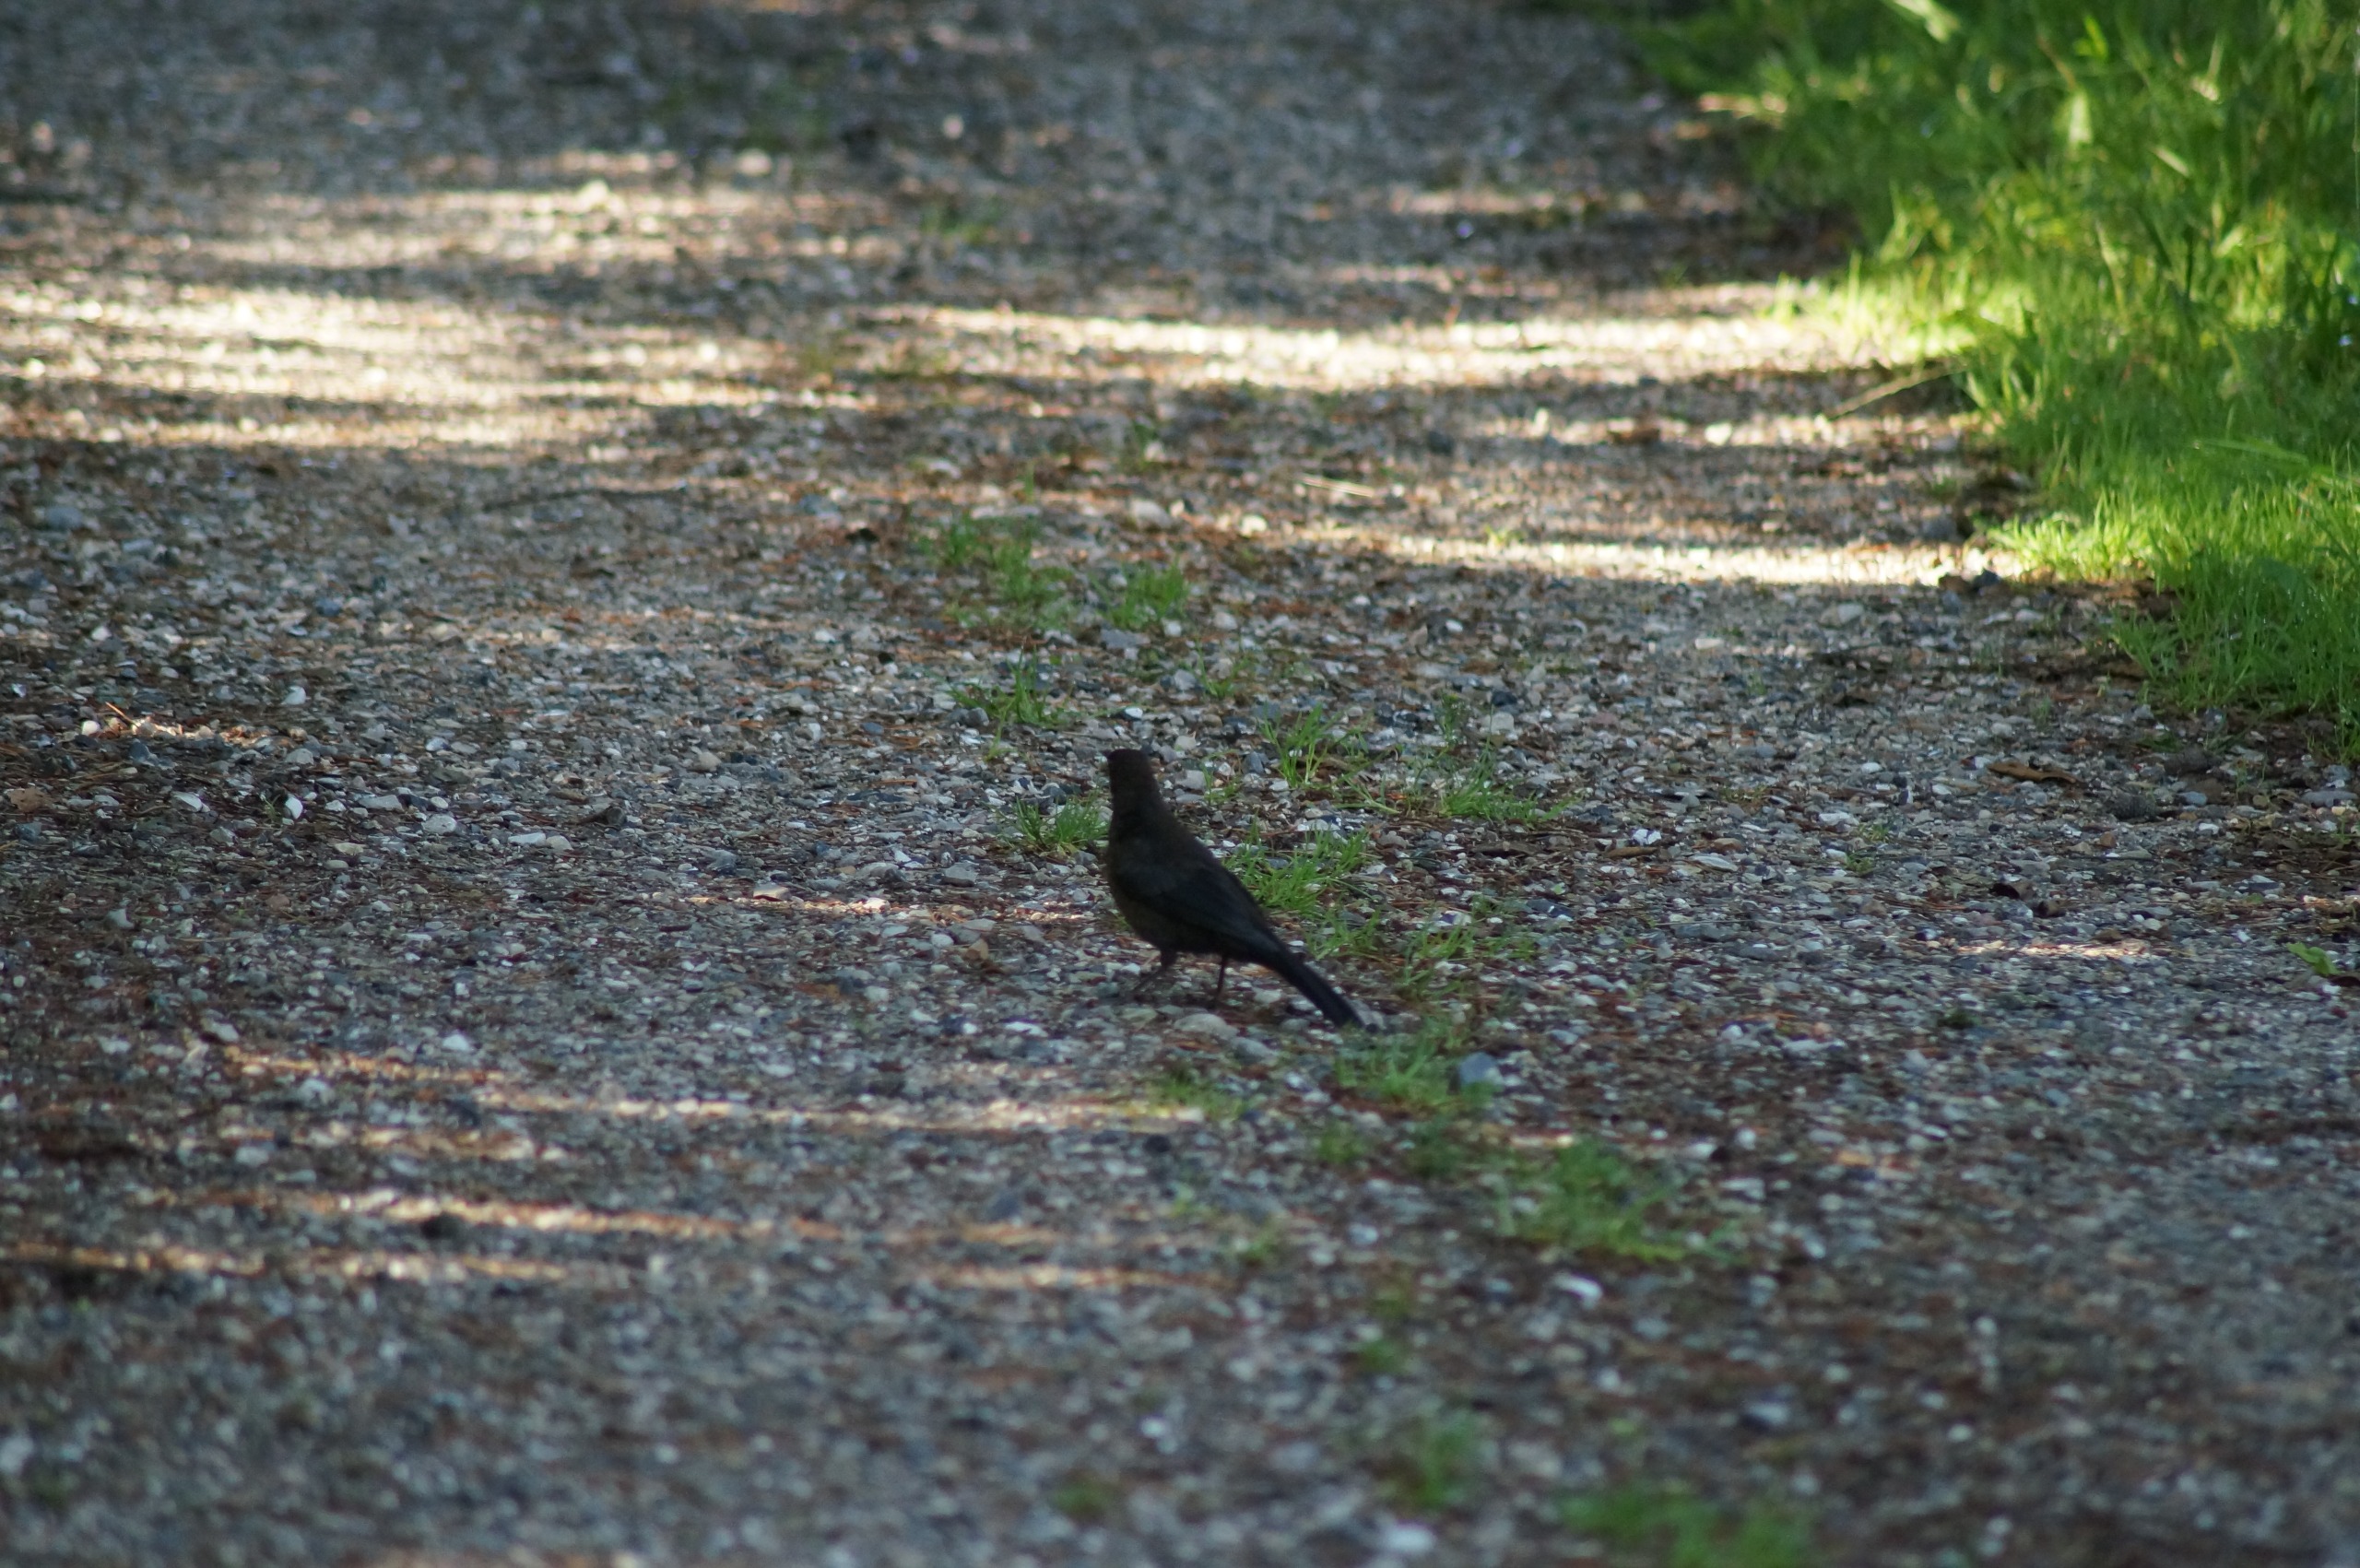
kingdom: Animalia
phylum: Chordata
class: Aves
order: Passeriformes
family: Turdidae
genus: Turdus
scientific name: Turdus merula
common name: Solsort
